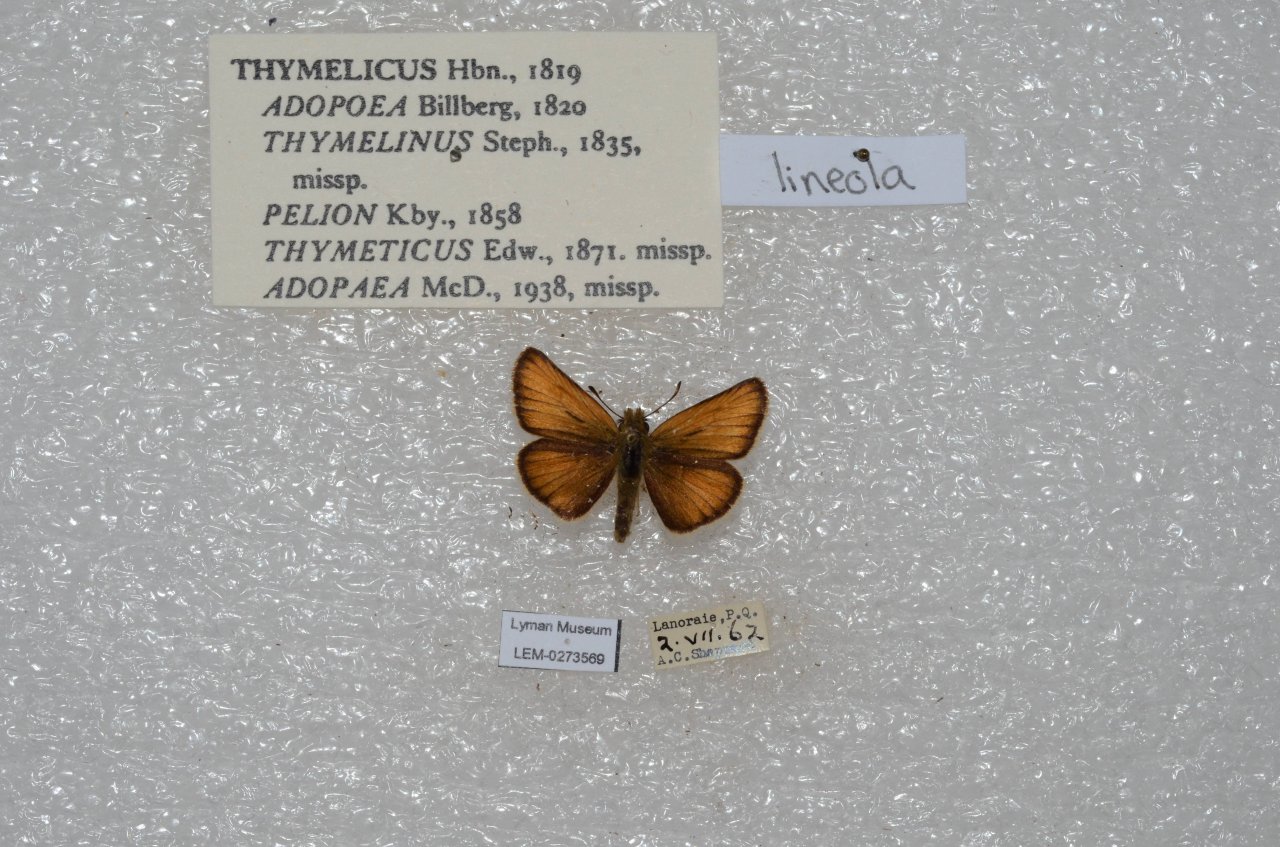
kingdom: Animalia
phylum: Arthropoda
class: Insecta
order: Lepidoptera
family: Hesperiidae
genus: Thymelicus
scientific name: Thymelicus lineola
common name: European Skipper
